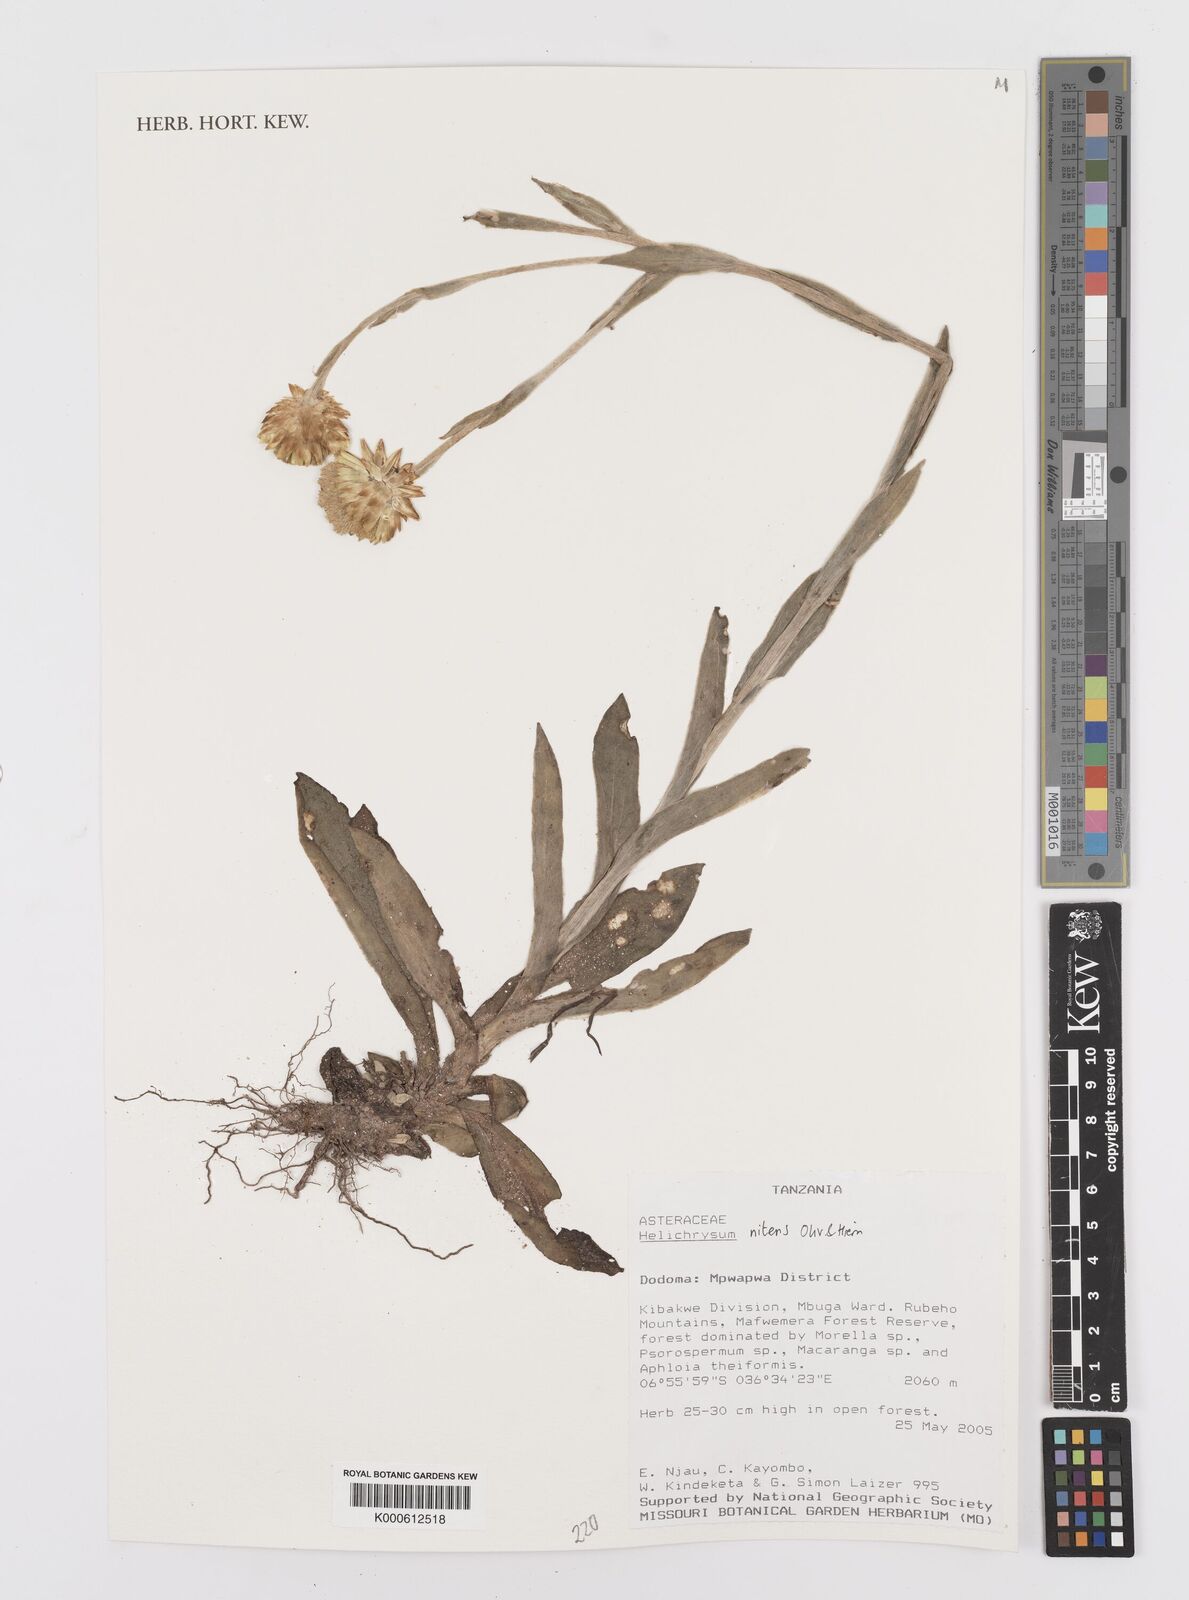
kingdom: Plantae
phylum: Tracheophyta
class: Magnoliopsida
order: Asterales
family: Asteraceae
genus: Helichrysum
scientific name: Helichrysum nitens
